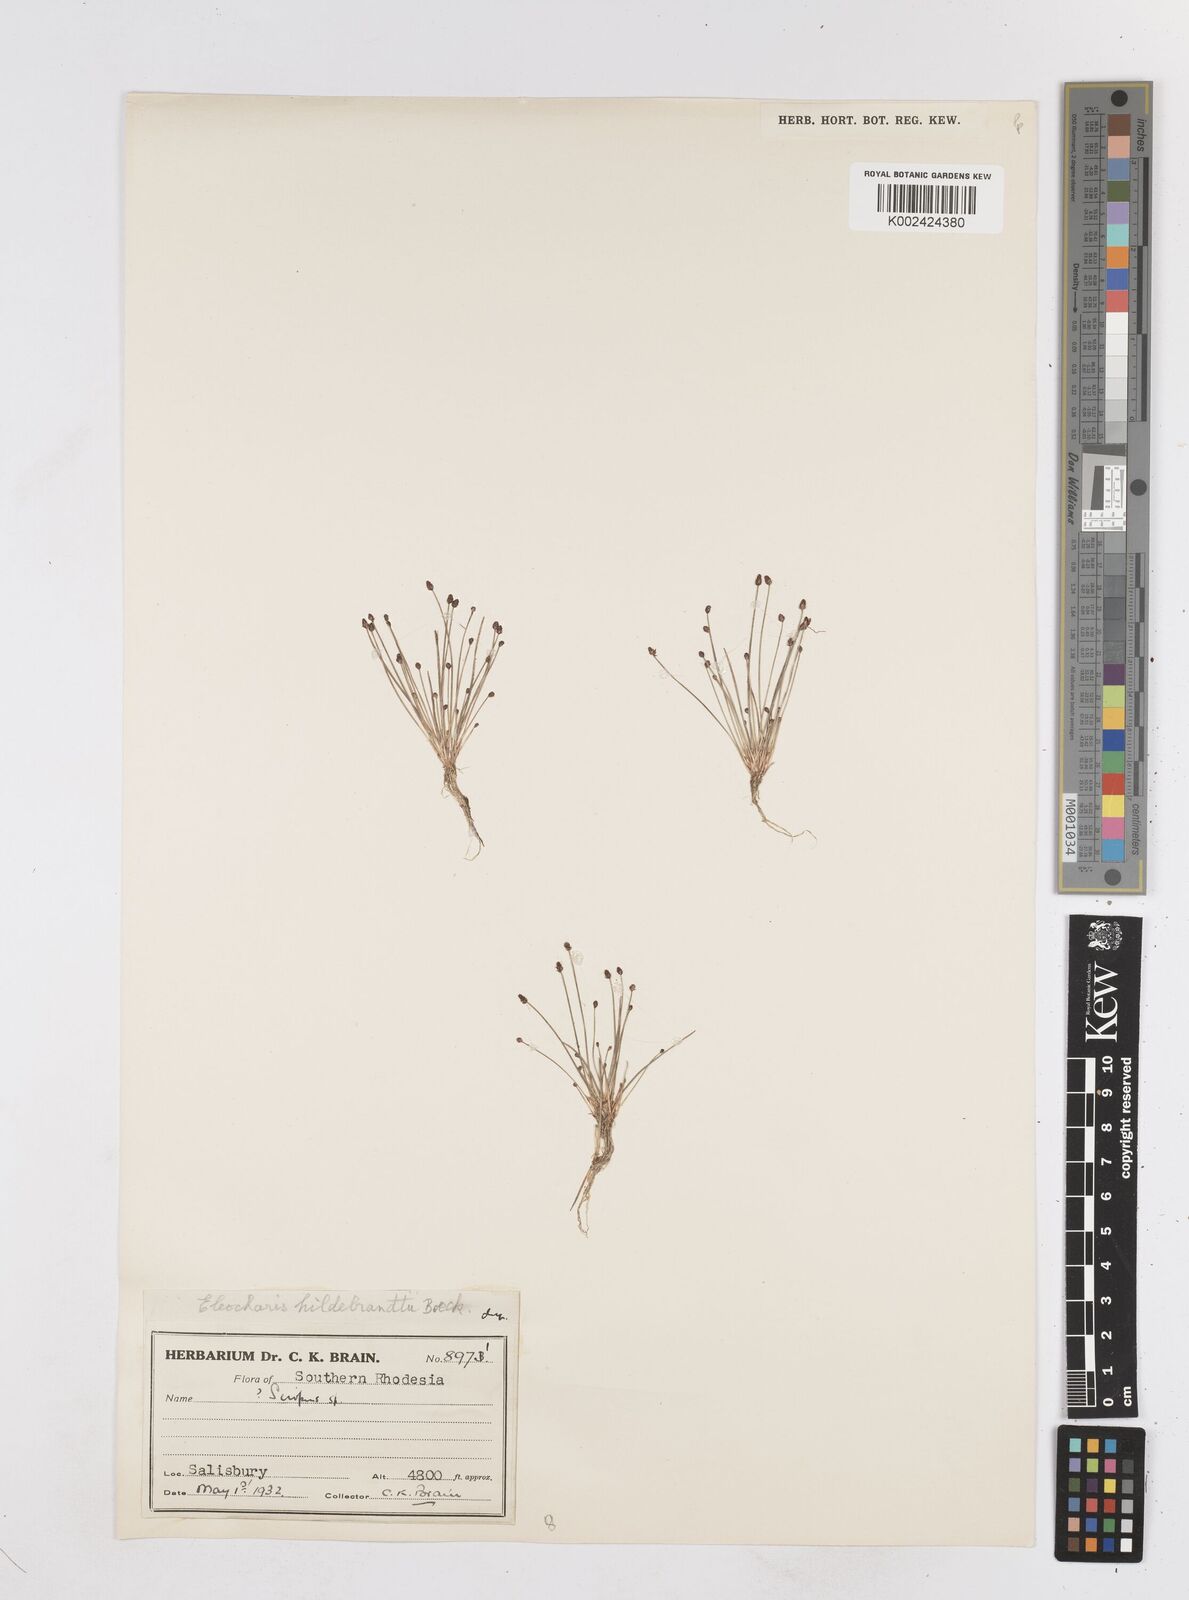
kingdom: Plantae
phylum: Tracheophyta
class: Liliopsida
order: Poales
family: Cyperaceae
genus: Eleocharis
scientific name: Eleocharis nigrescens
